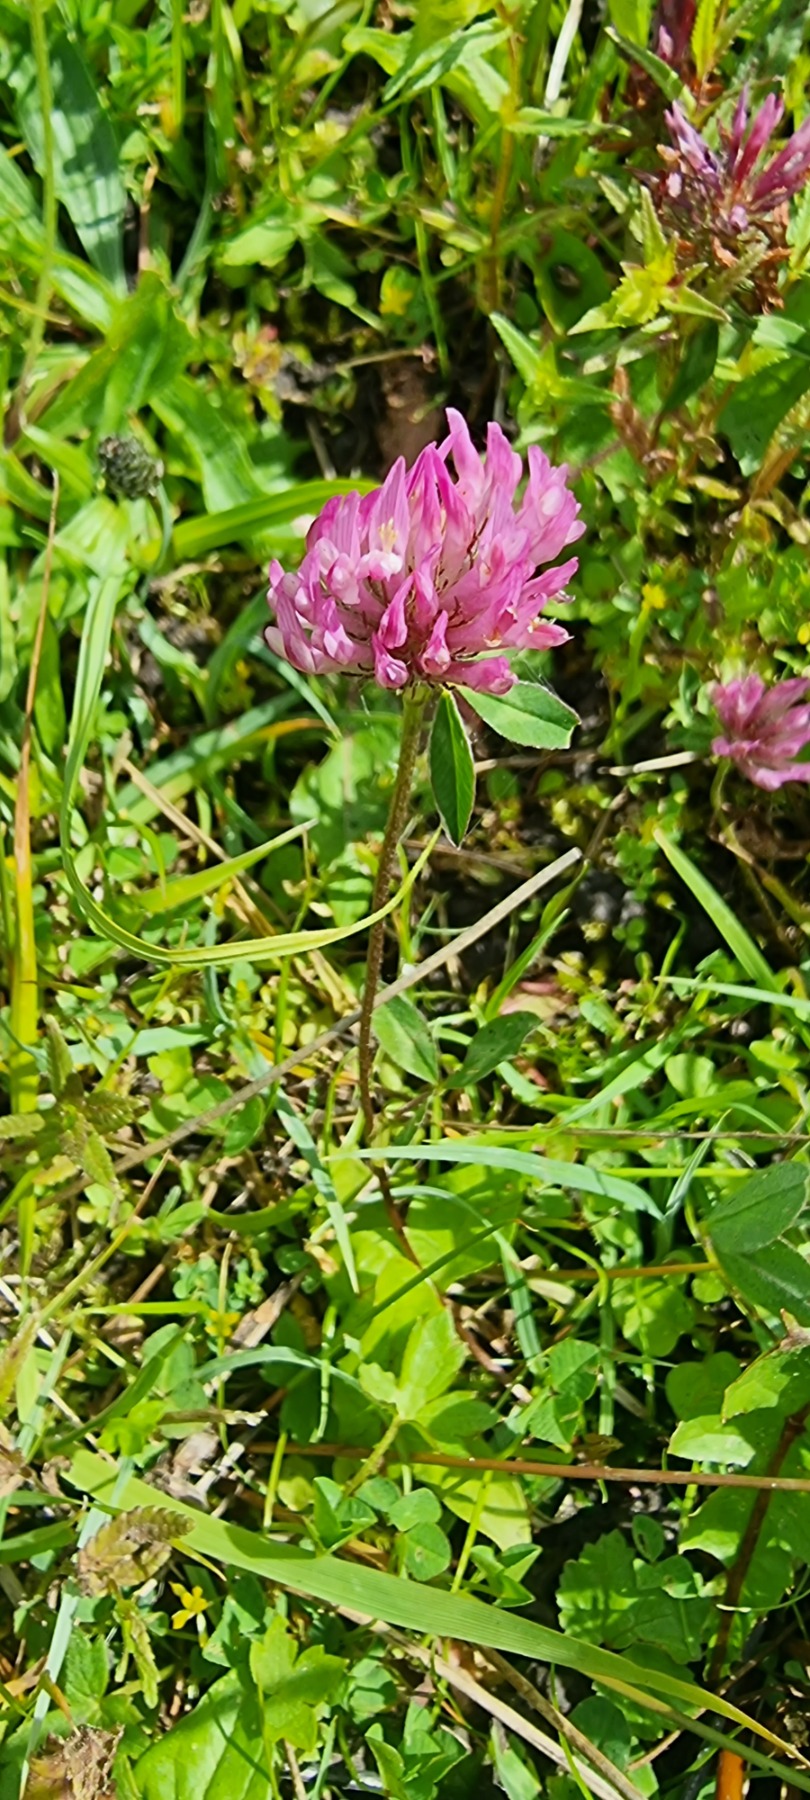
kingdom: Plantae
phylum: Tracheophyta
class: Magnoliopsida
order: Fabales
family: Fabaceae
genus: Trifolium
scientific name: Trifolium pratense
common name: Rød-kløver
